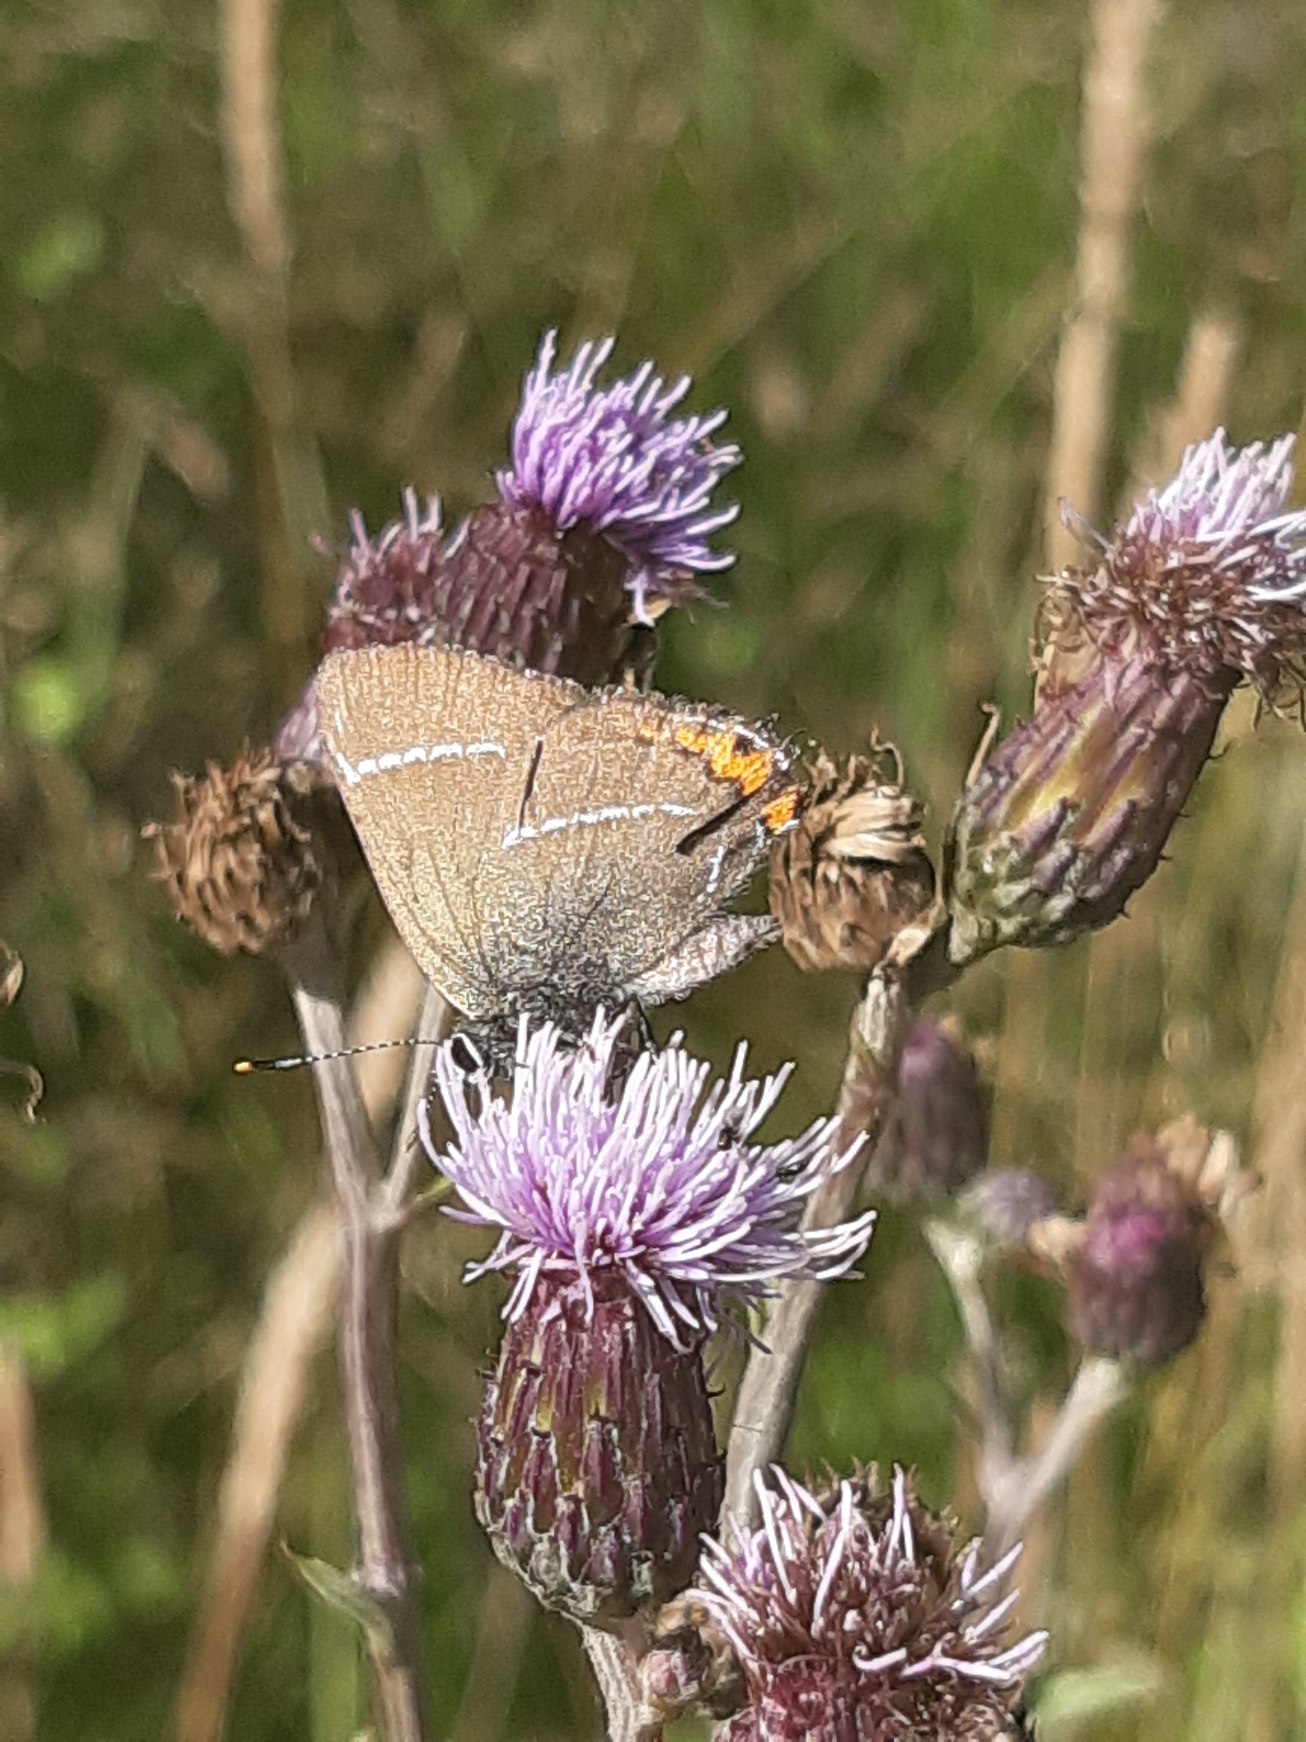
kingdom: Animalia
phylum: Arthropoda
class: Insecta
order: Lepidoptera
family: Lycaenidae
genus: Satyrium
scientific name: Satyrium w-album
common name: Det hvide W
